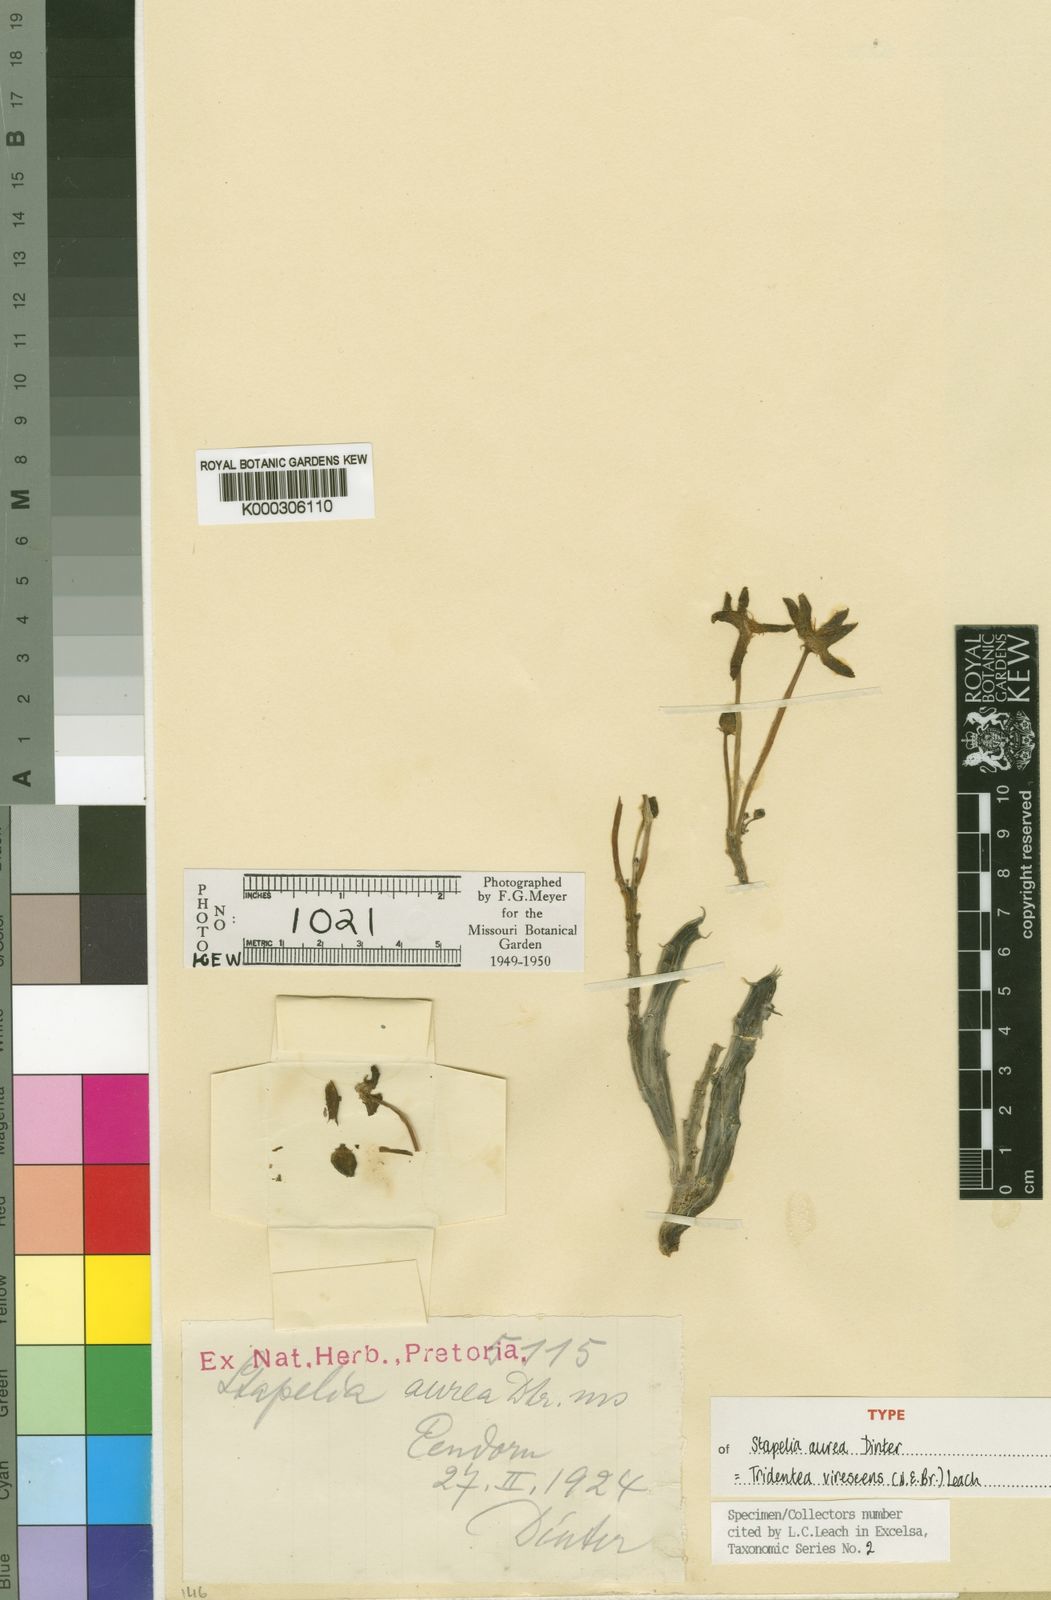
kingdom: Plantae
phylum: Tracheophyta
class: Magnoliopsida
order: Gentianales
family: Apocynaceae
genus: Ceropegia
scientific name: Ceropegia virescens
